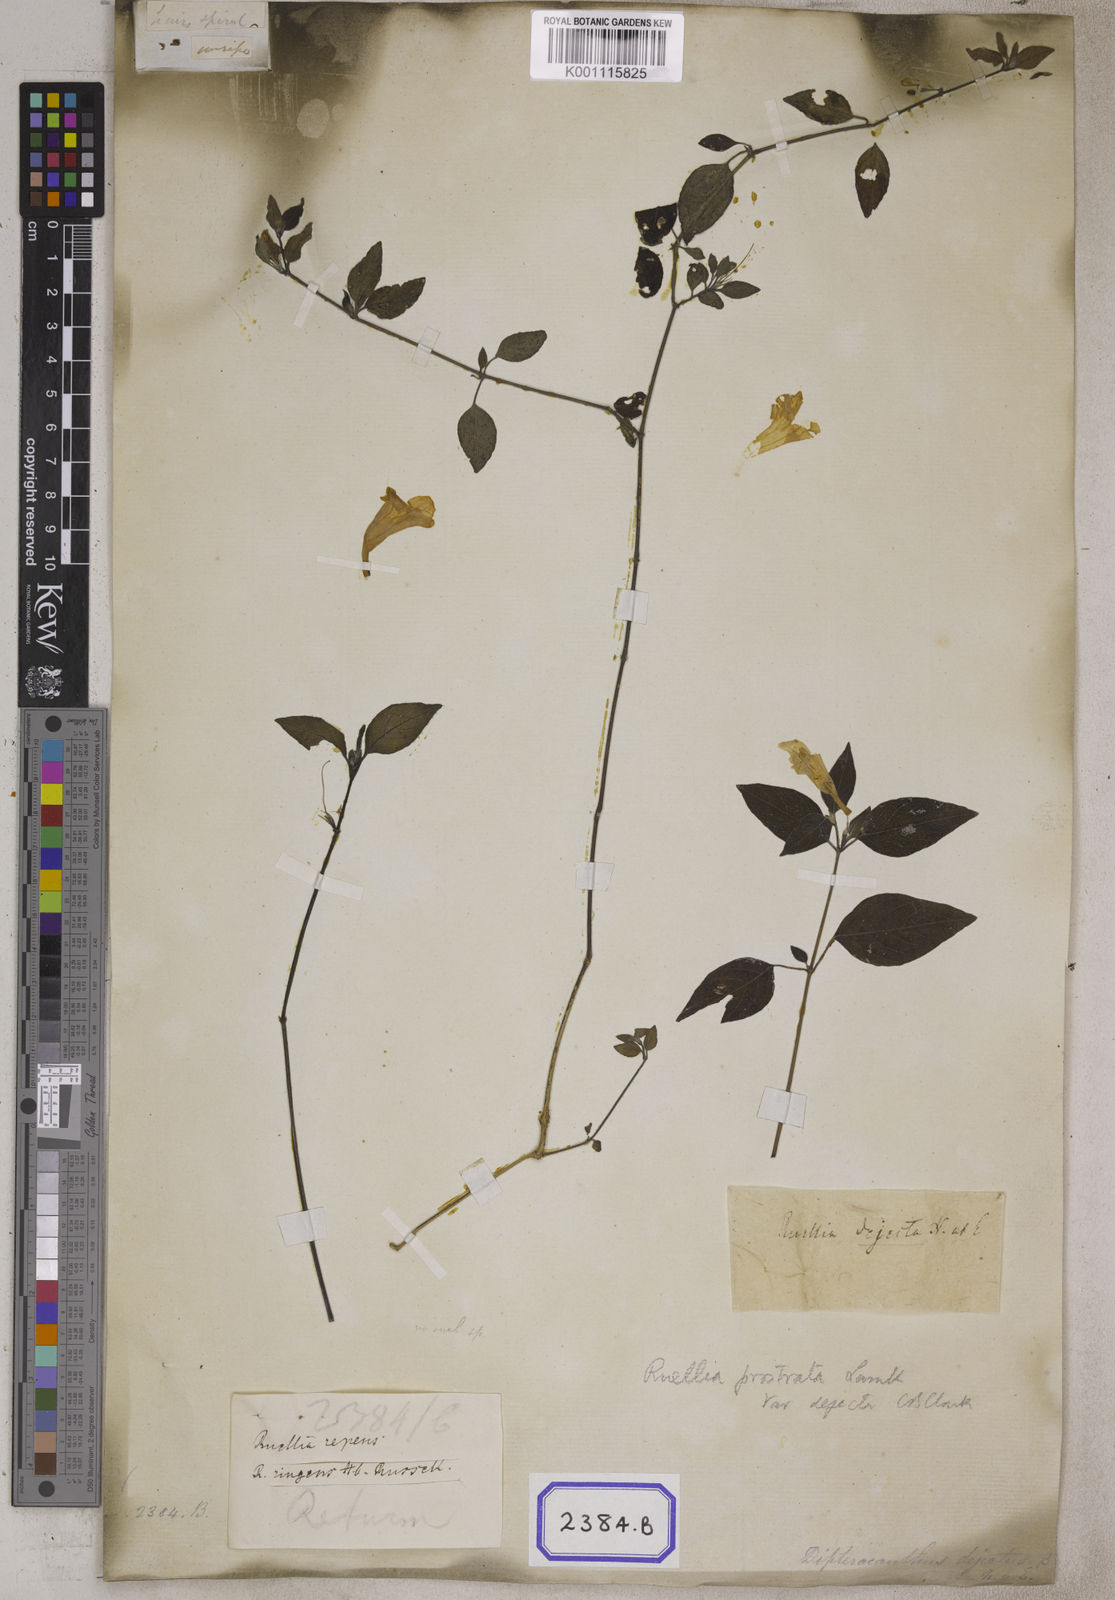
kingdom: Plantae
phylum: Tracheophyta
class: Magnoliopsida
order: Lamiales
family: Acanthaceae
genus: Ruellia
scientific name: Ruellia prostrata
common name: Prostrate wild petunia
